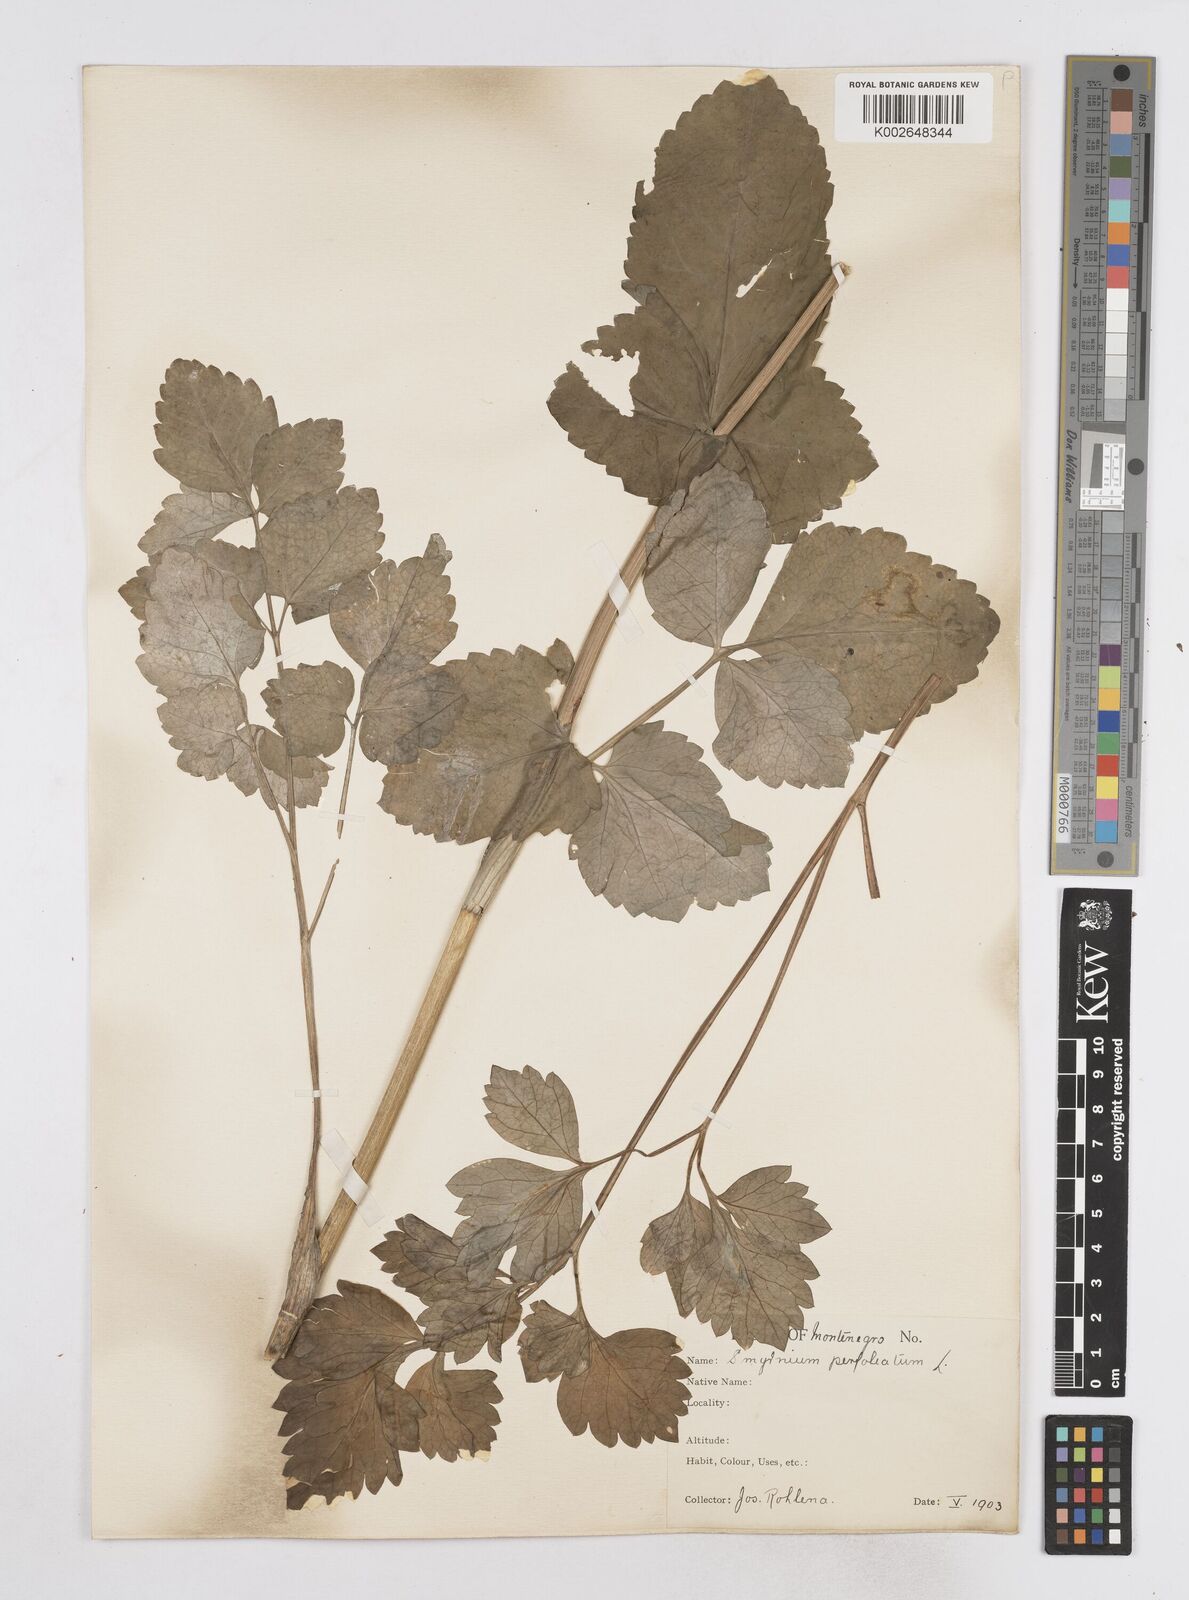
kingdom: Plantae
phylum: Tracheophyta
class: Magnoliopsida
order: Apiales
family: Apiaceae
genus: Smyrnium
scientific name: Smyrnium perfoliatum
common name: Perfoliate alexanders
